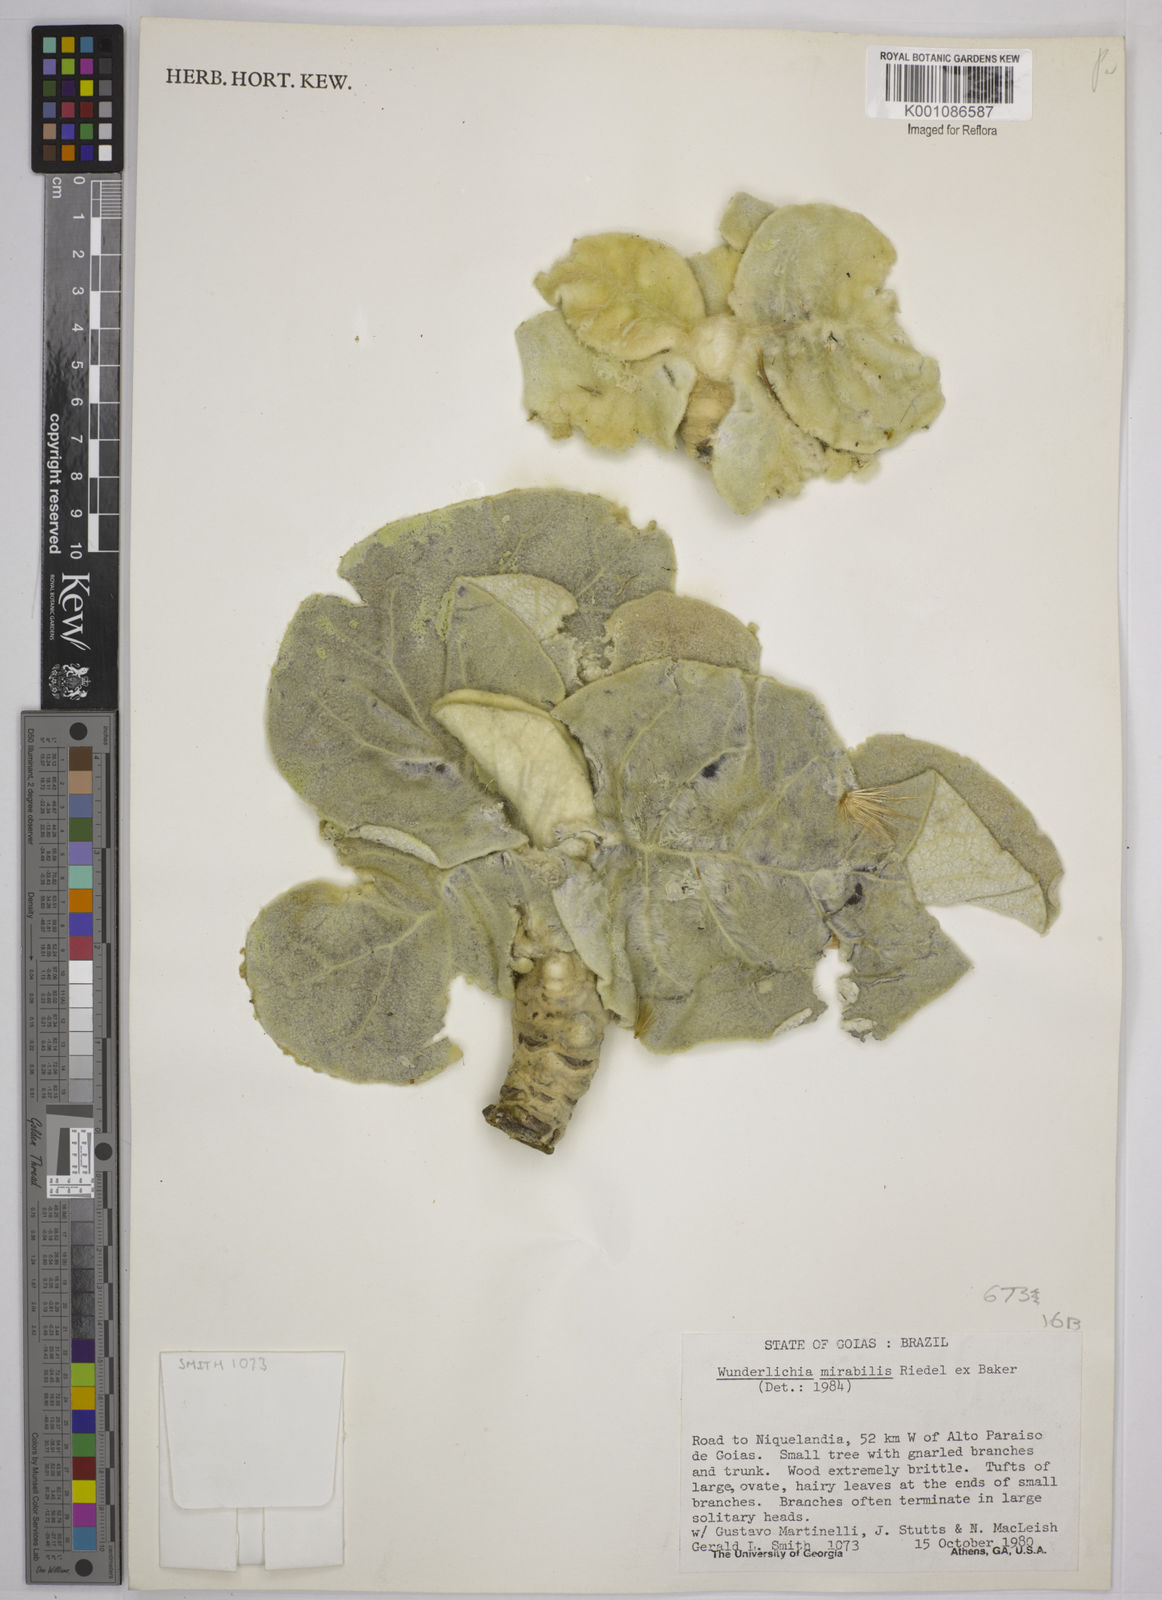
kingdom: Plantae
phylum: Tracheophyta
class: Magnoliopsida
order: Asterales
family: Asteraceae
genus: Wunderlichia
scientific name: Wunderlichia mirabilis
